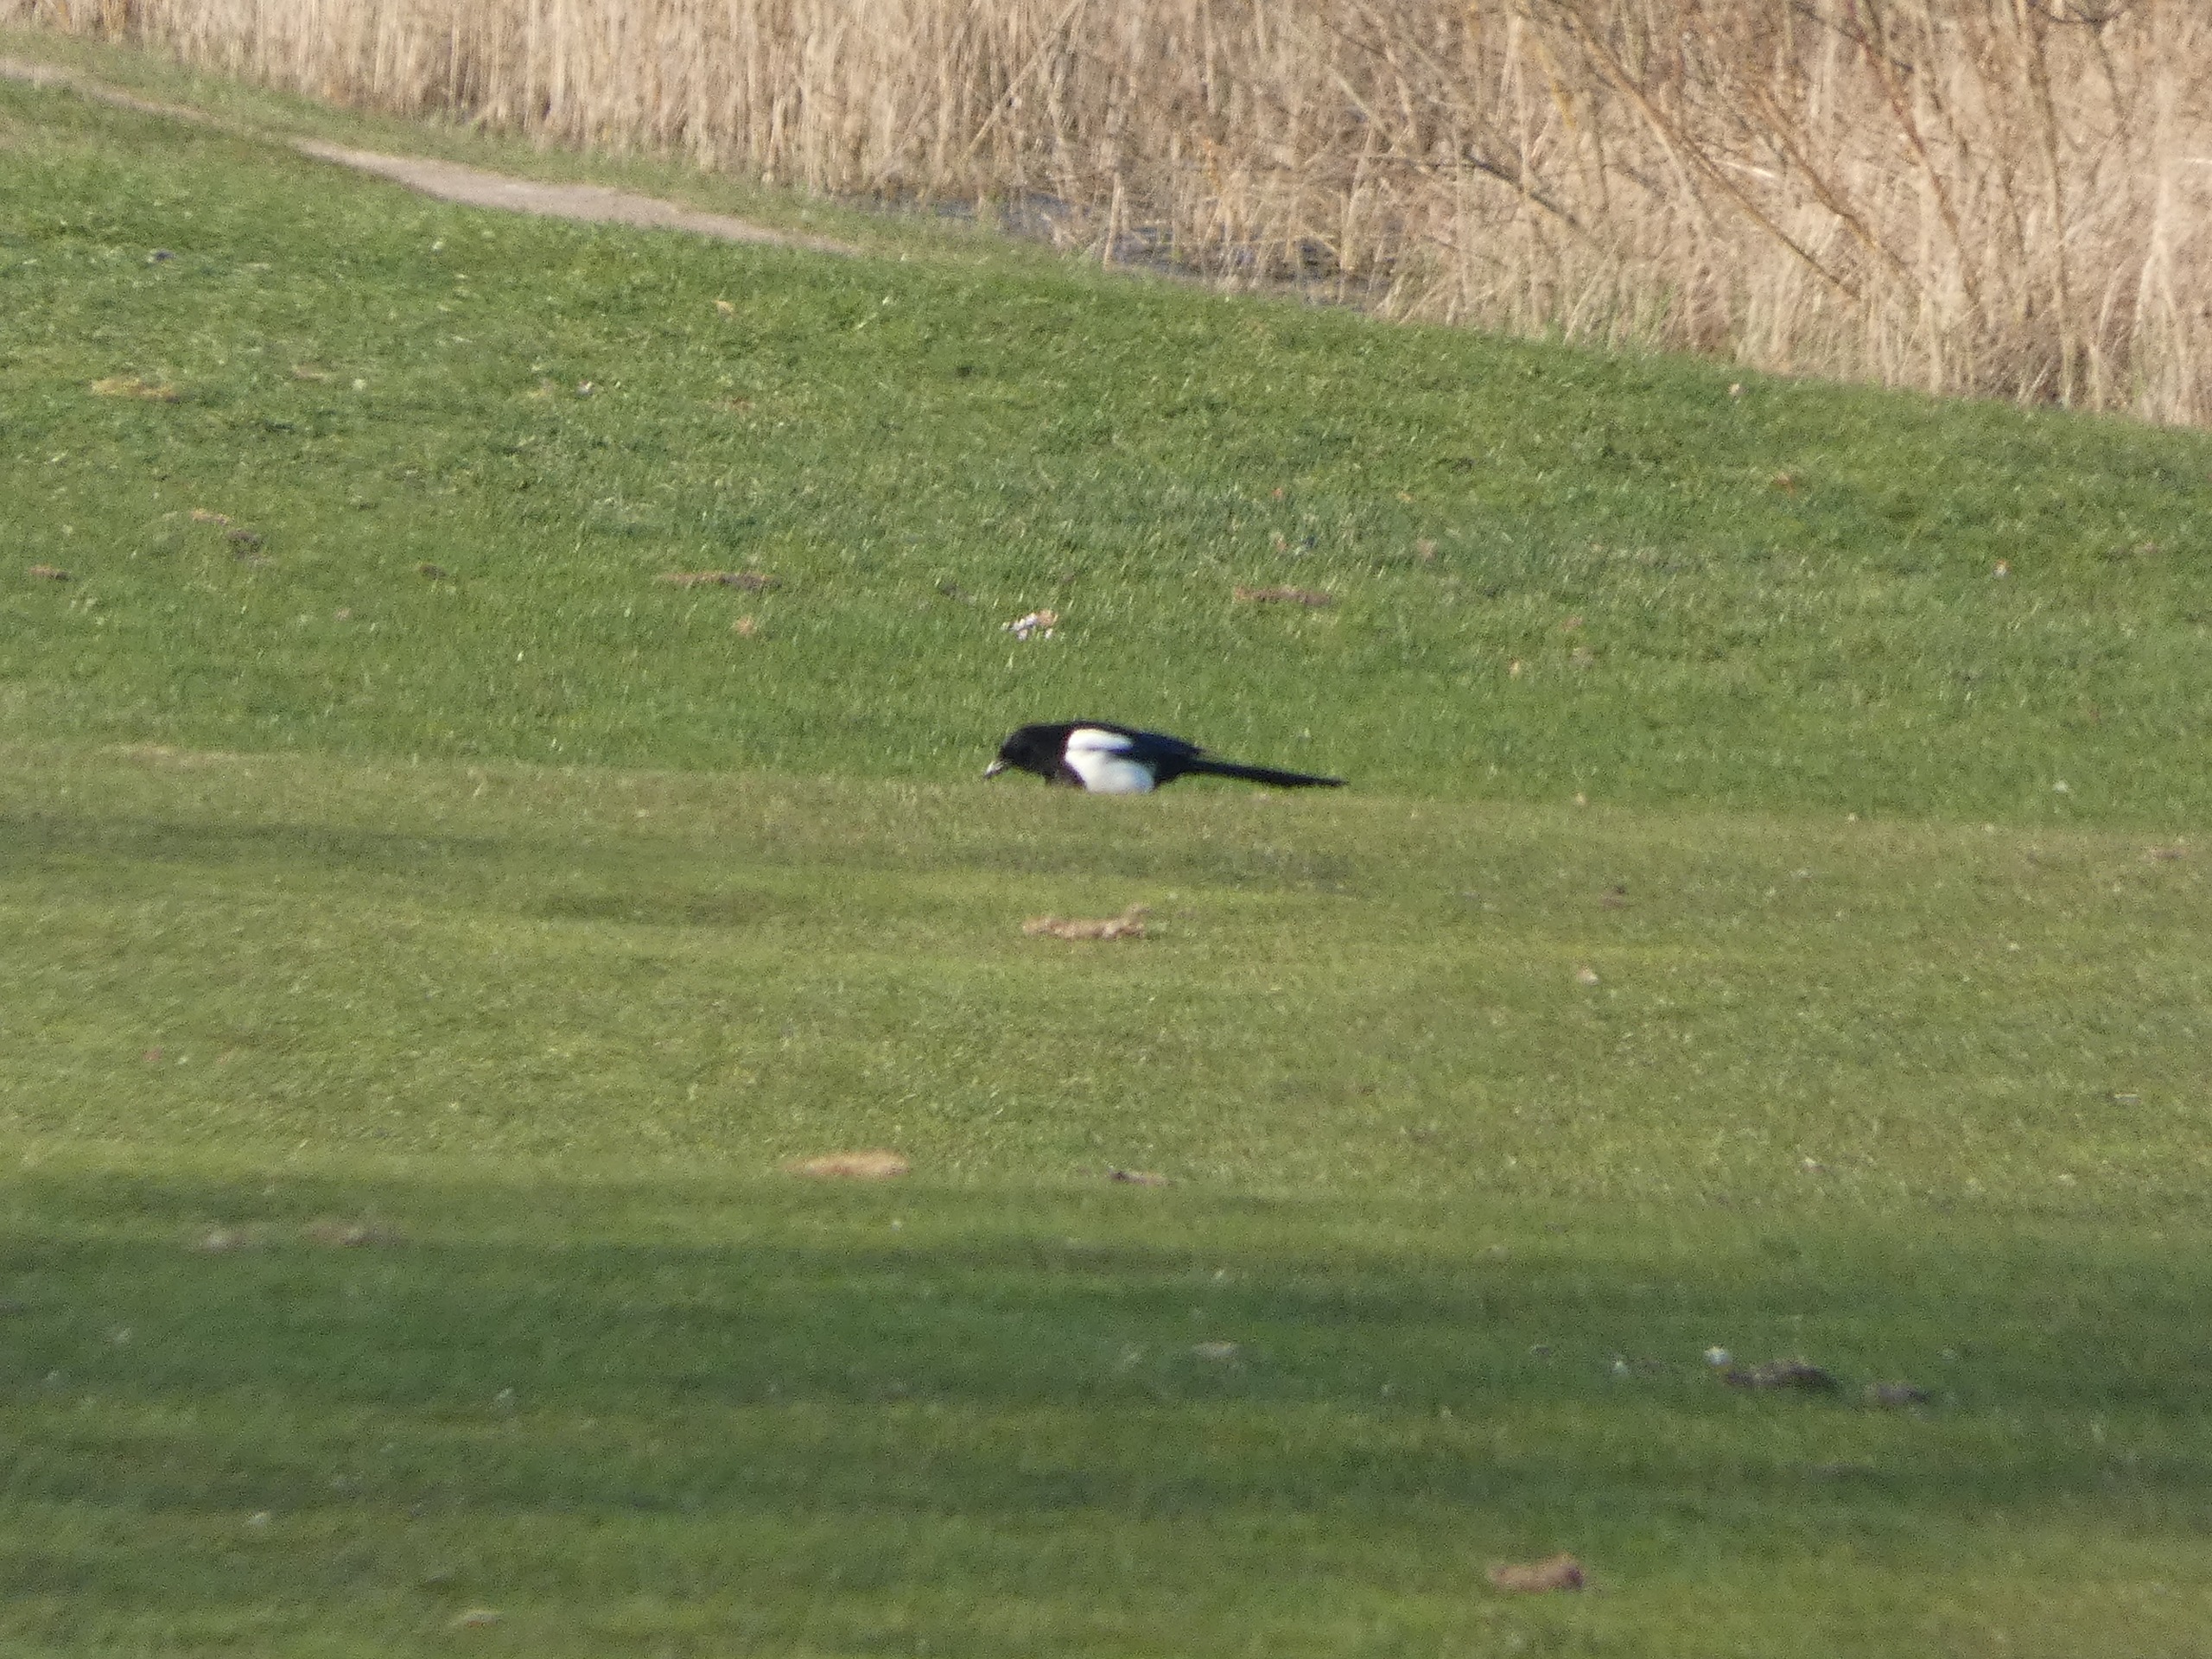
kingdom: Animalia
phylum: Chordata
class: Aves
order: Passeriformes
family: Corvidae
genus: Pica
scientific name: Pica pica
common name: Husskade
